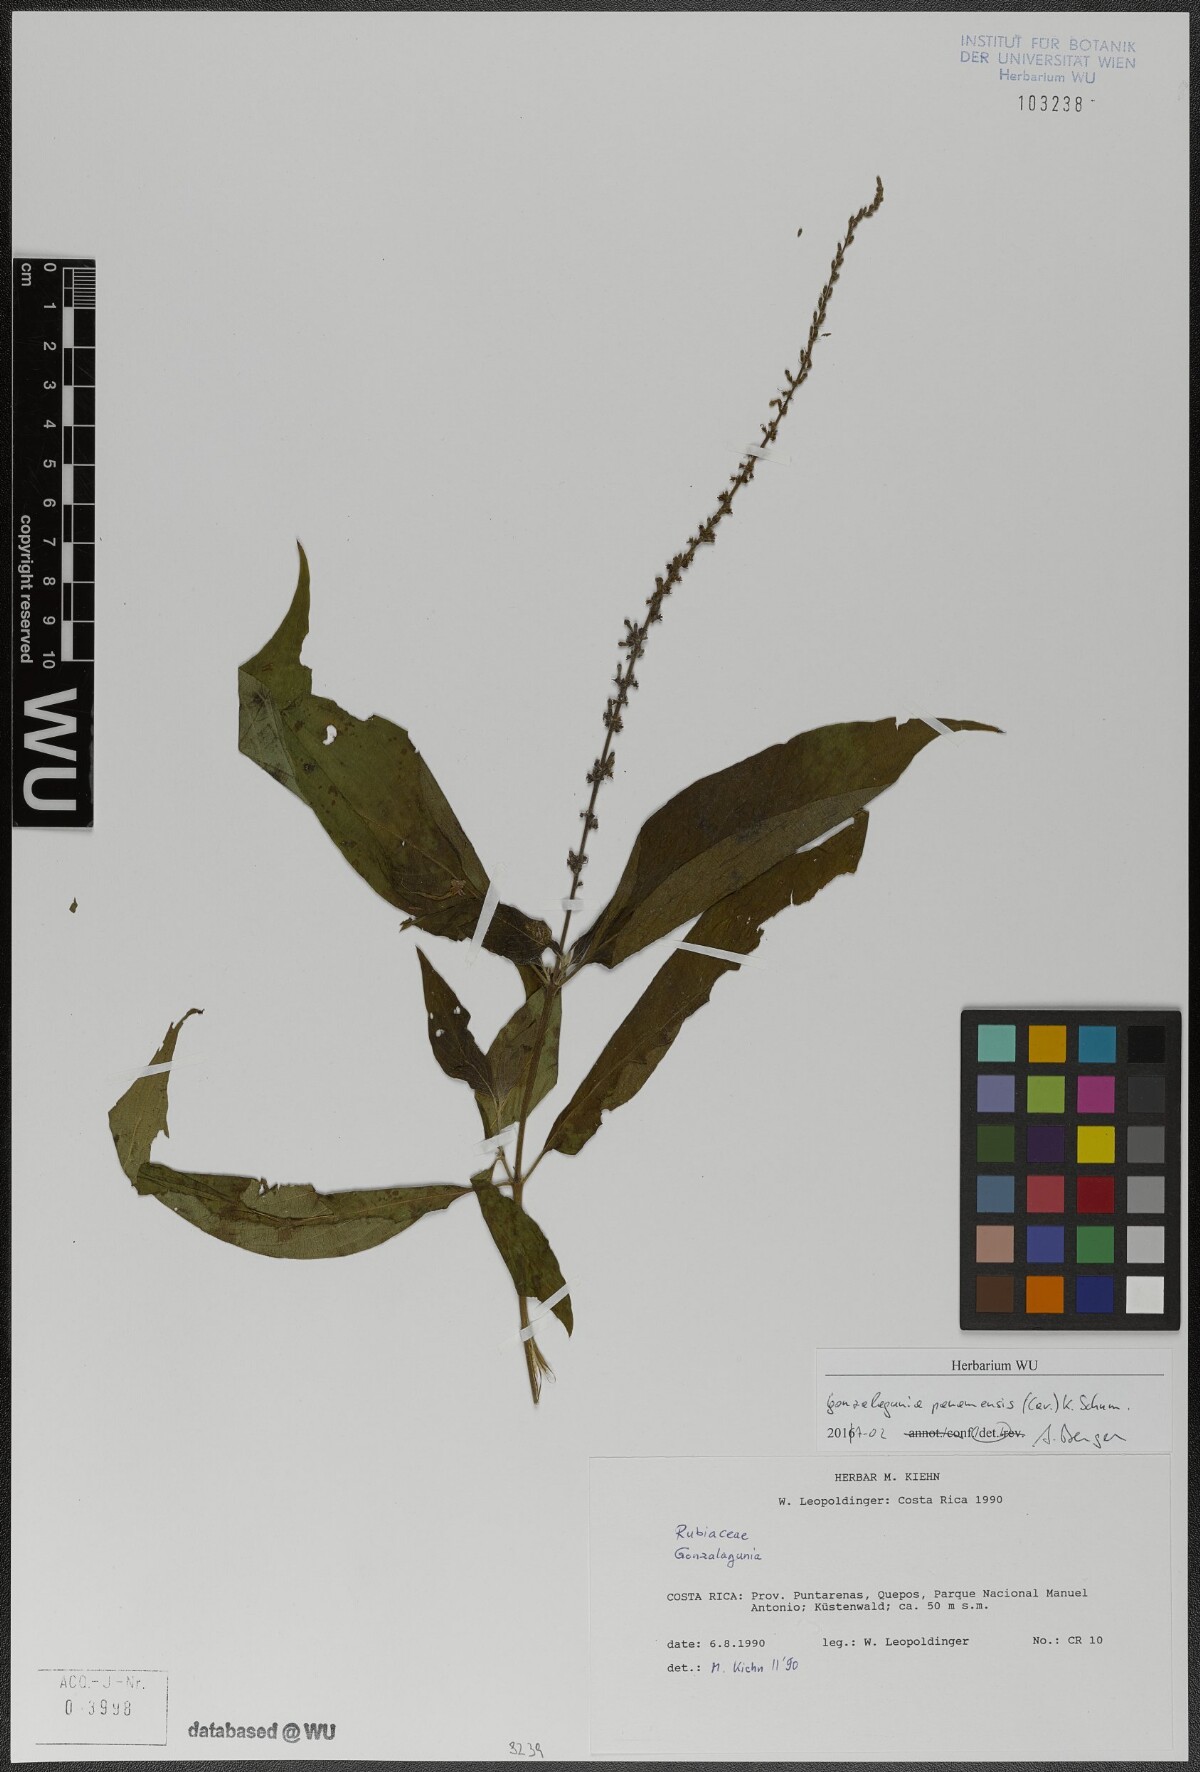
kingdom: Plantae
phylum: Tracheophyta
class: Magnoliopsida
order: Gentianales
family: Rubiaceae
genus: Gonzalagunia
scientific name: Gonzalagunia panamensis
